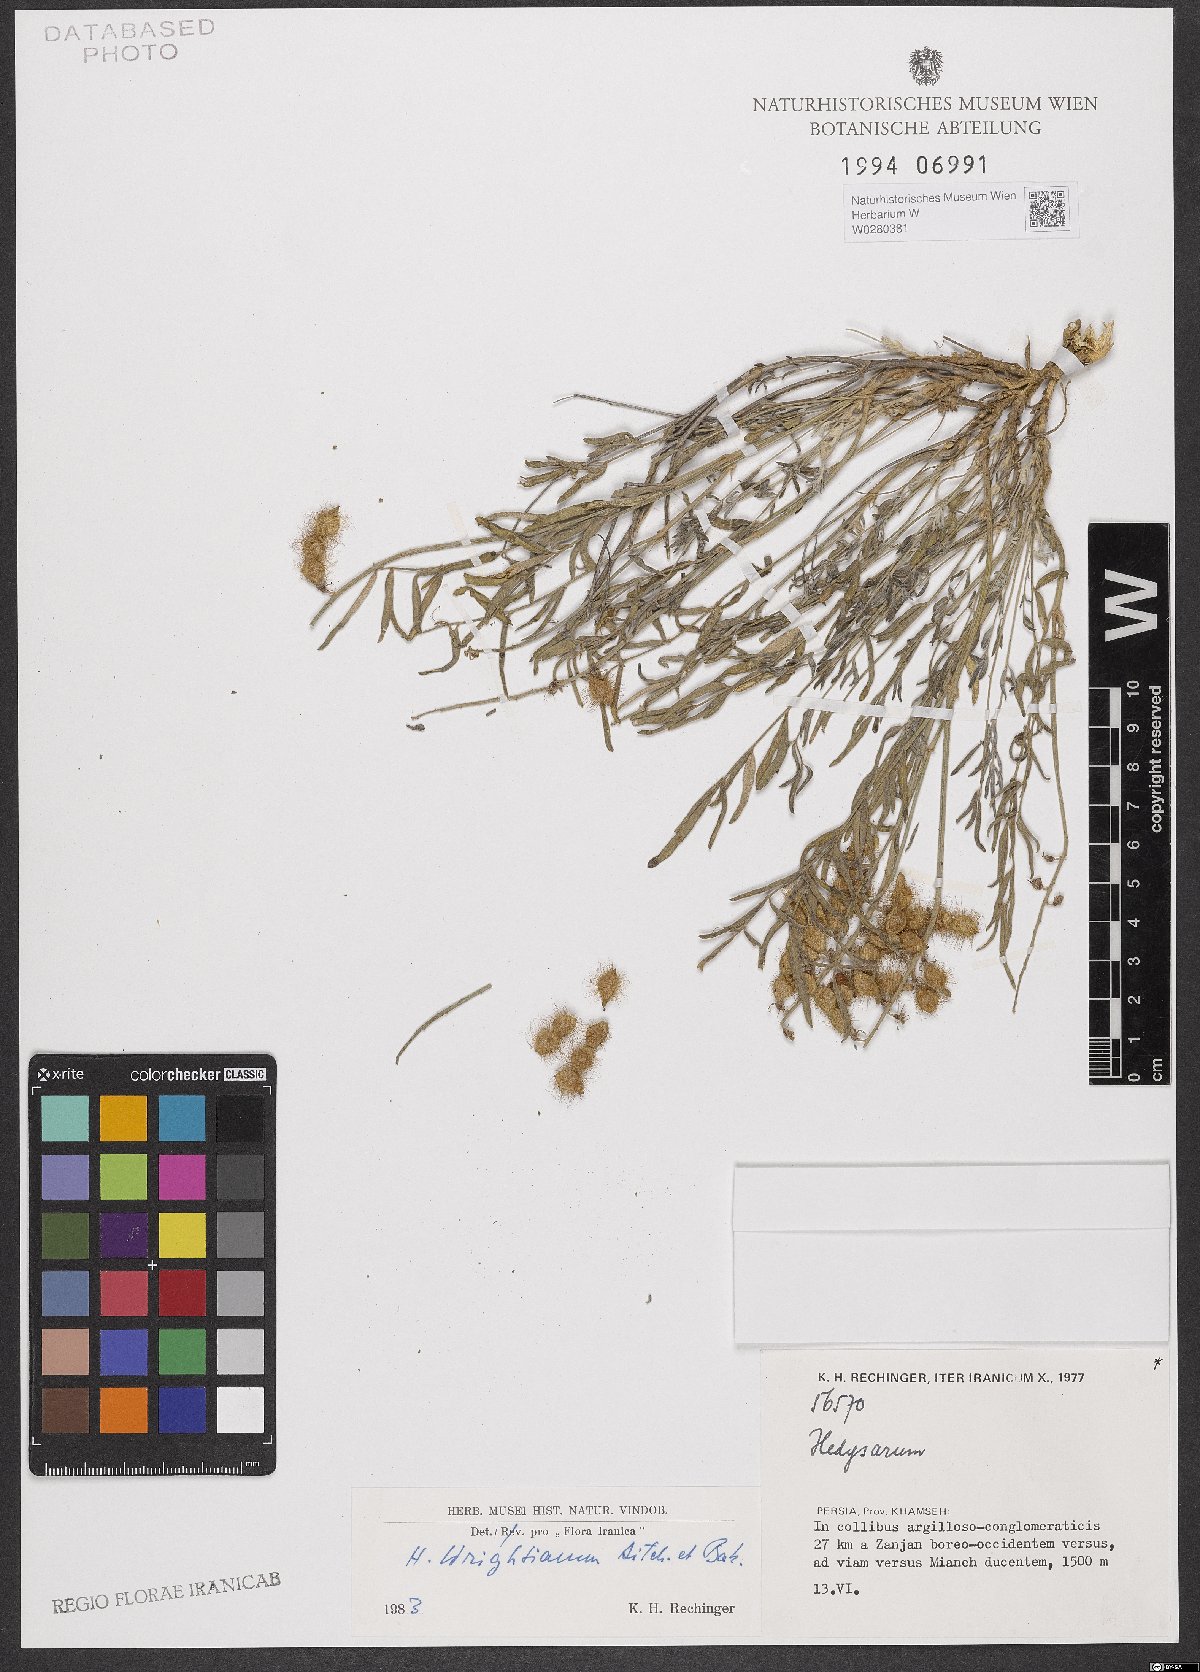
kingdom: Plantae
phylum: Tracheophyta
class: Magnoliopsida
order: Fabales
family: Fabaceae
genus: Hedysarum
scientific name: Hedysarum micropterum
